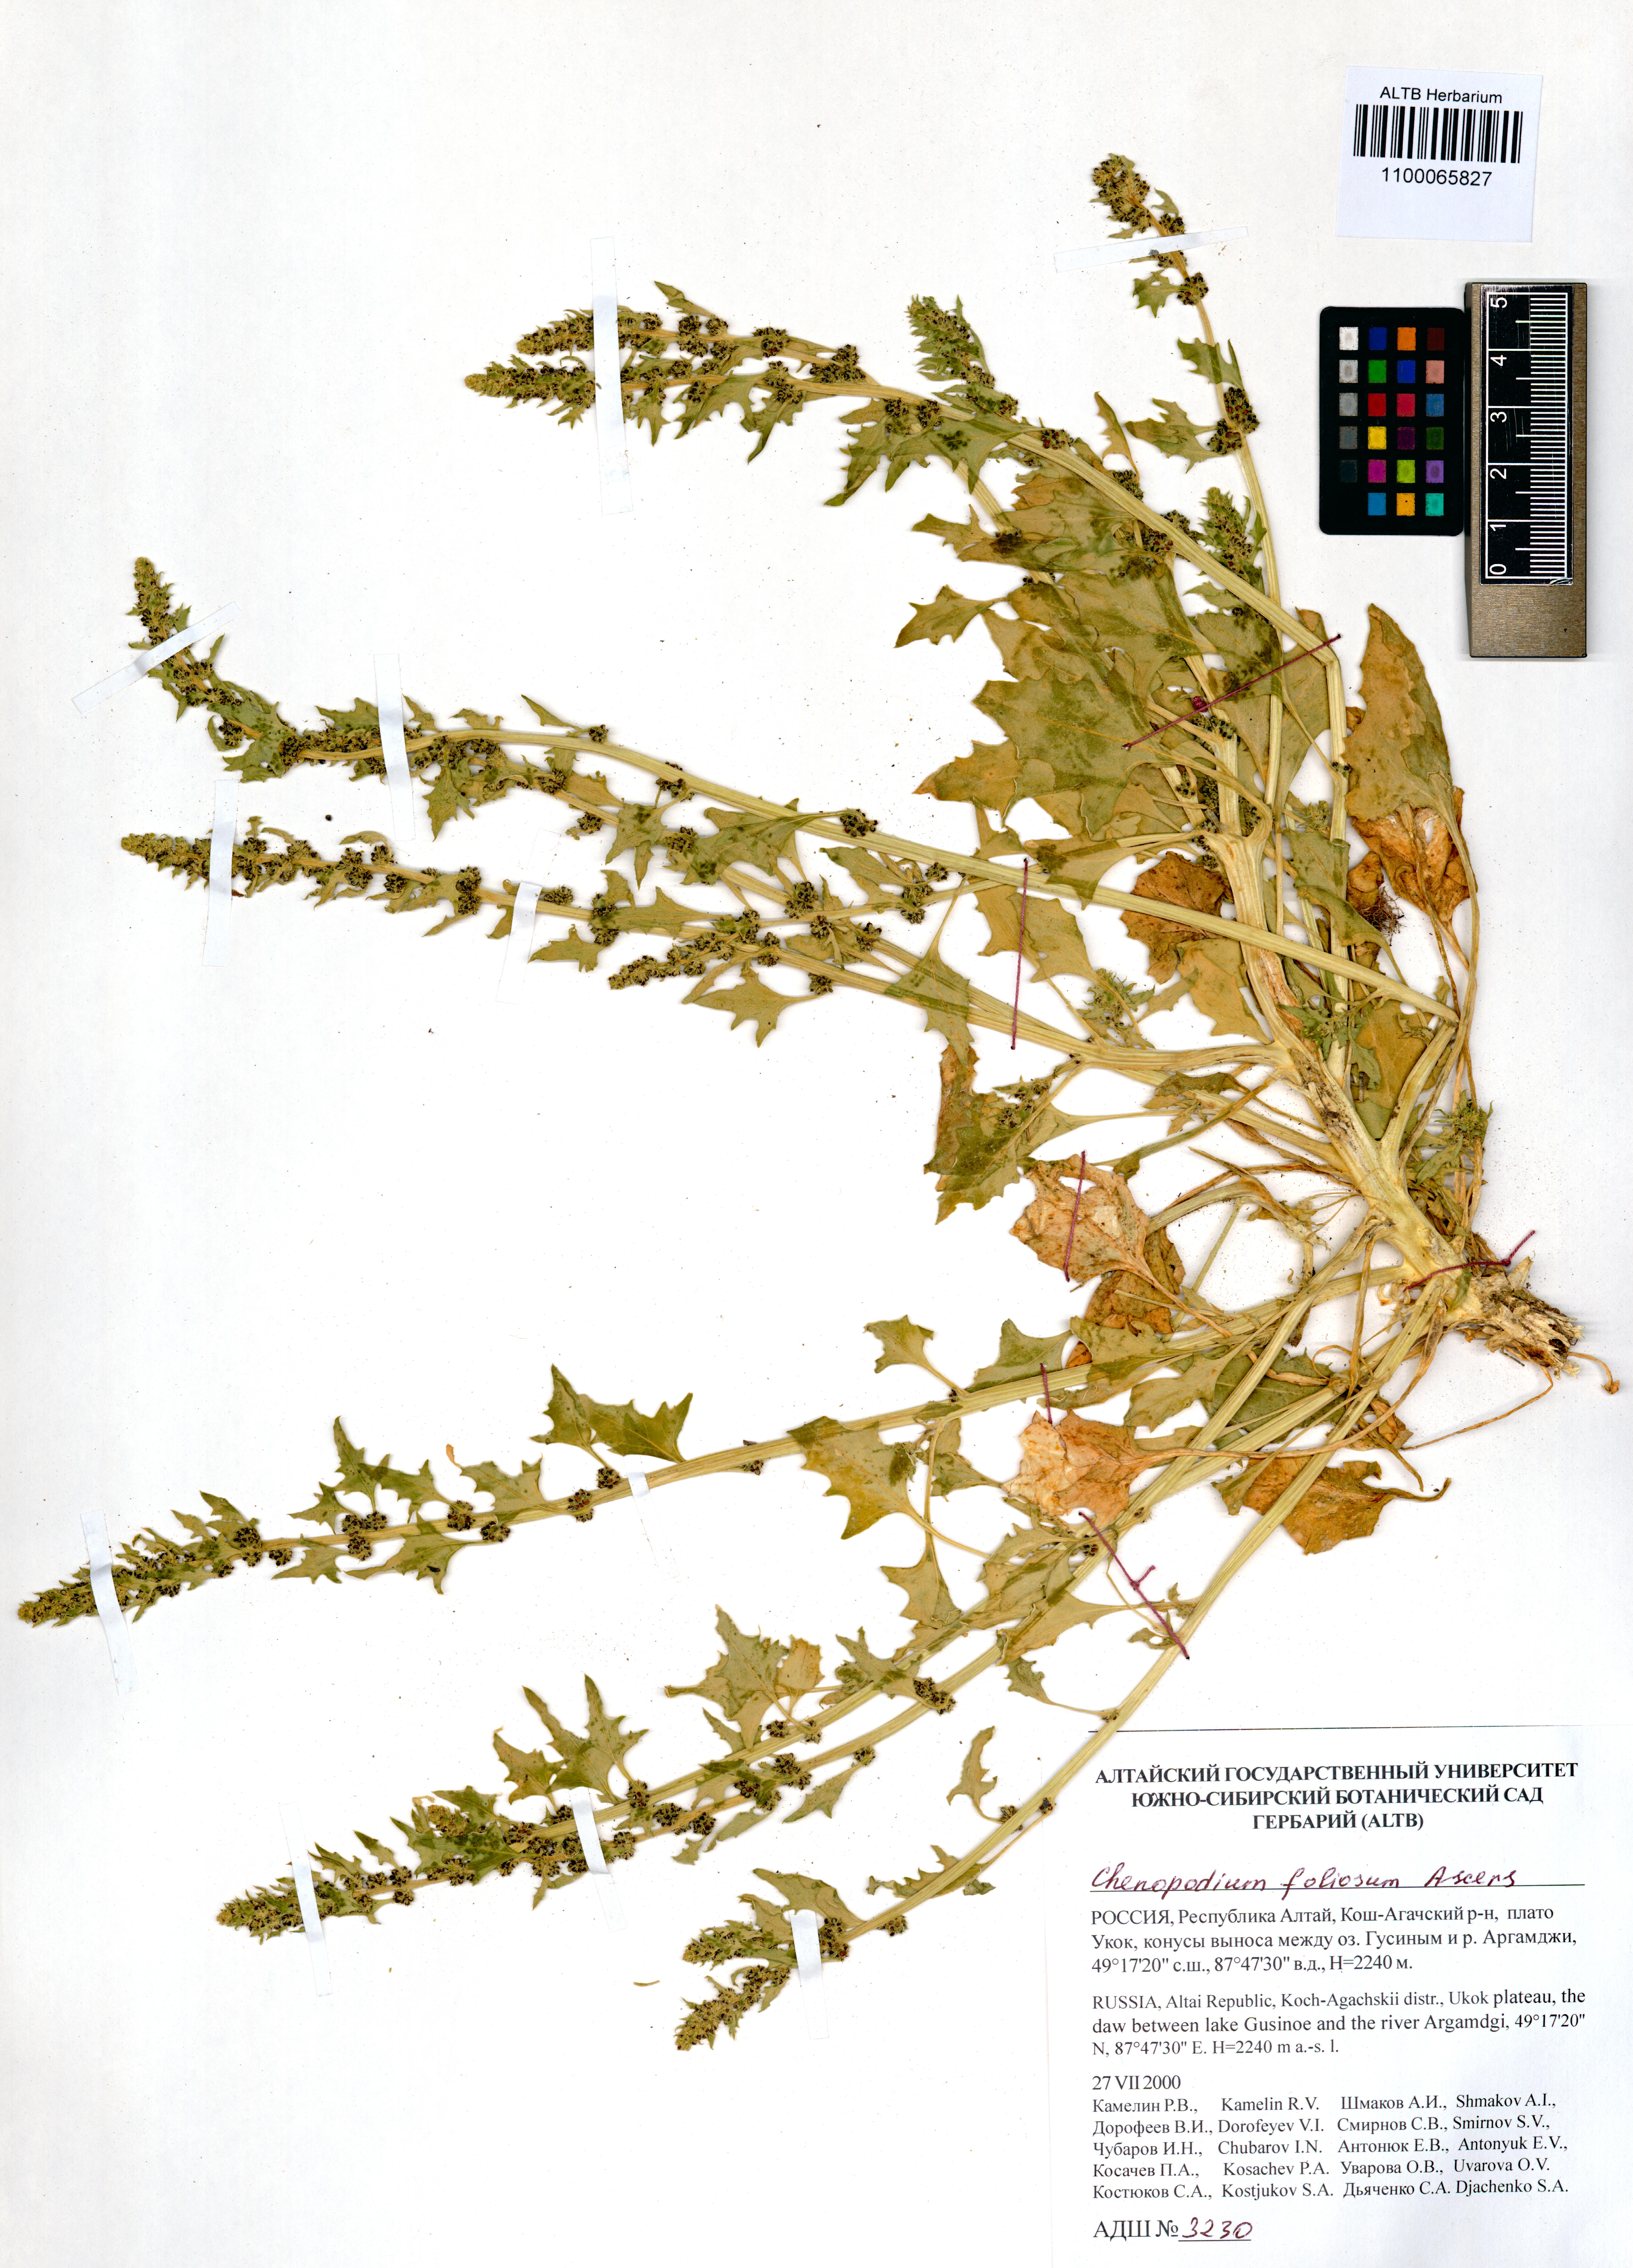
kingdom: Plantae
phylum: Tracheophyta
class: Magnoliopsida
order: Caryophyllales
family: Amaranthaceae
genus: Blitum
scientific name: Blitum virgatum
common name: Strawberry goosefoot
